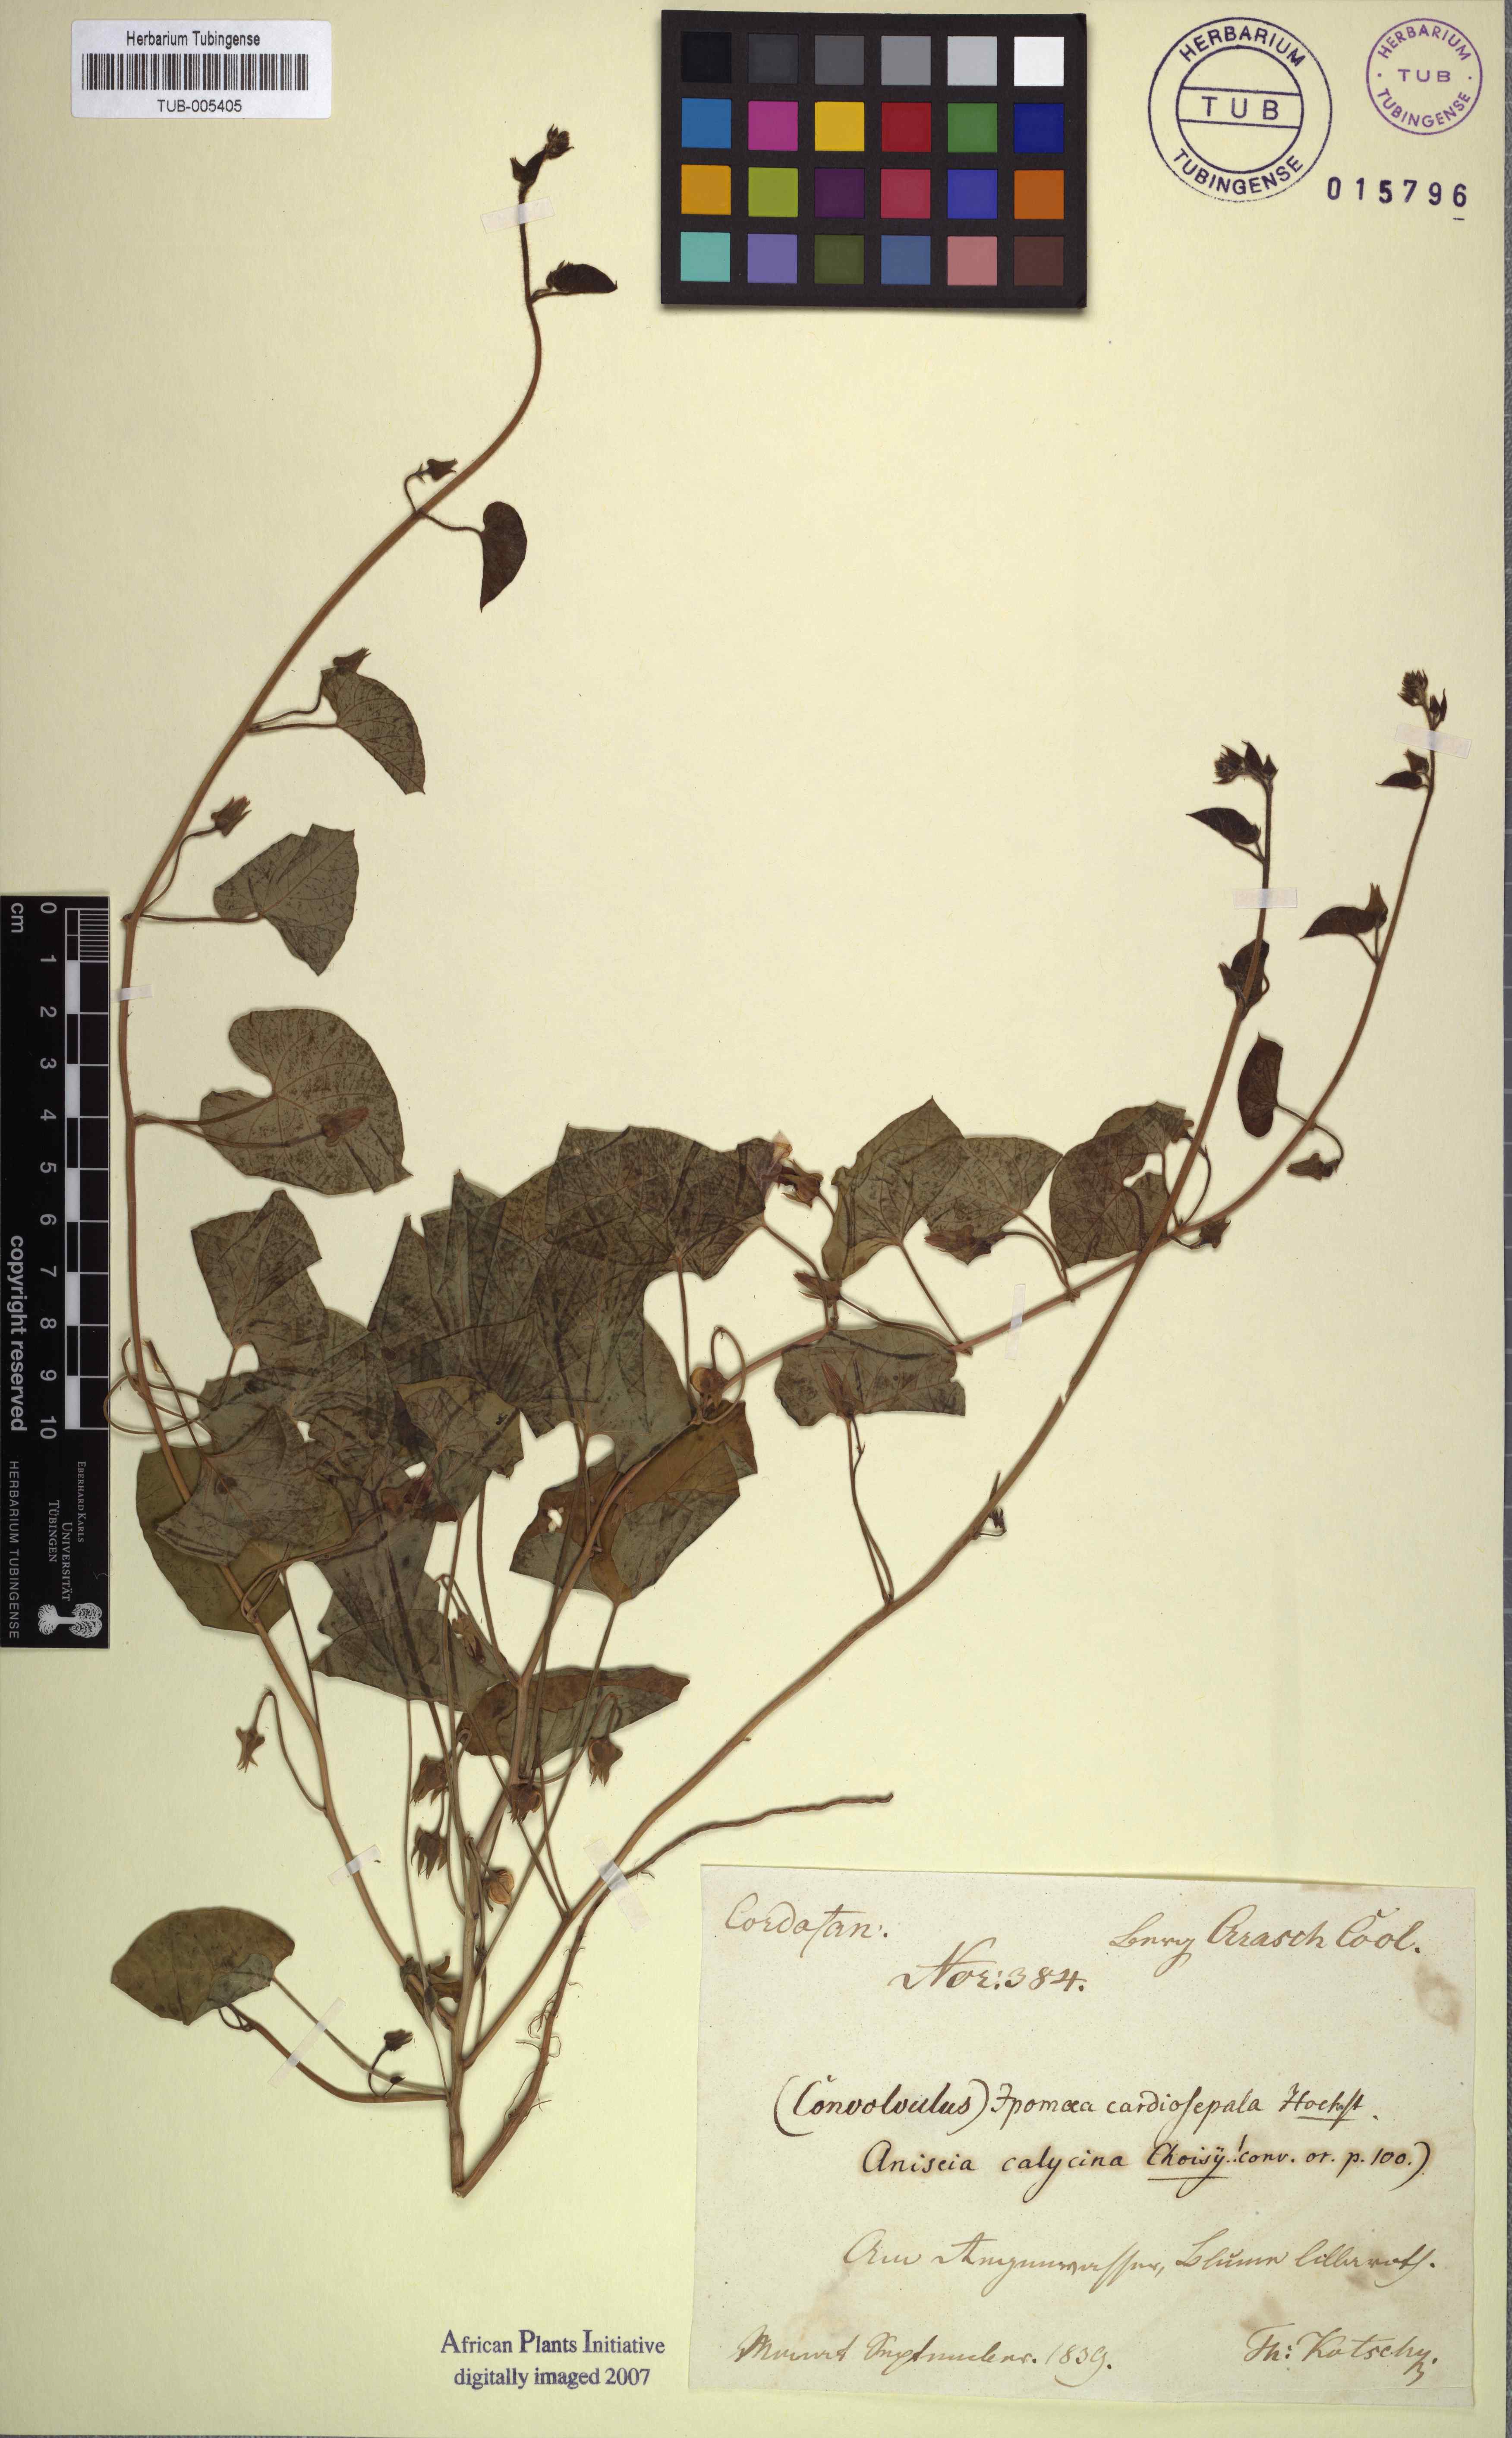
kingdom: Plantae
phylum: Tracheophyta
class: Magnoliopsida
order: Solanales
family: Convolvulaceae
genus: Ipomoea
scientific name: Ipomoea biflora
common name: Bellvine
